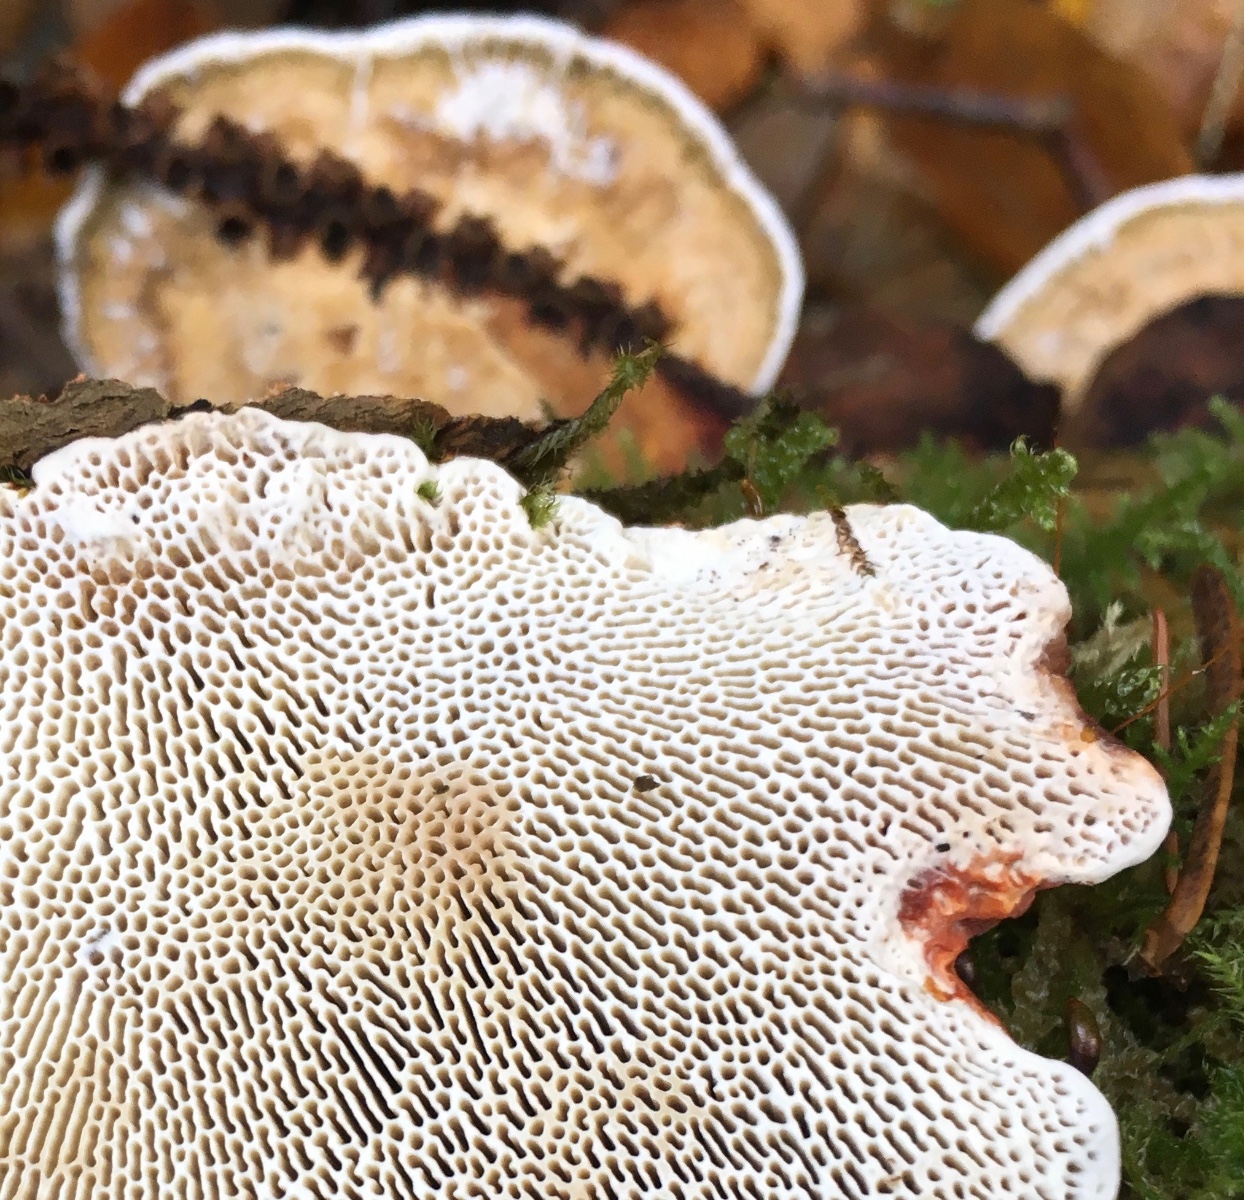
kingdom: Fungi
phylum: Basidiomycota
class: Agaricomycetes
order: Polyporales
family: Polyporaceae
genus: Daedaleopsis
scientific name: Daedaleopsis confragosa
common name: rødmende læderporesvamp
